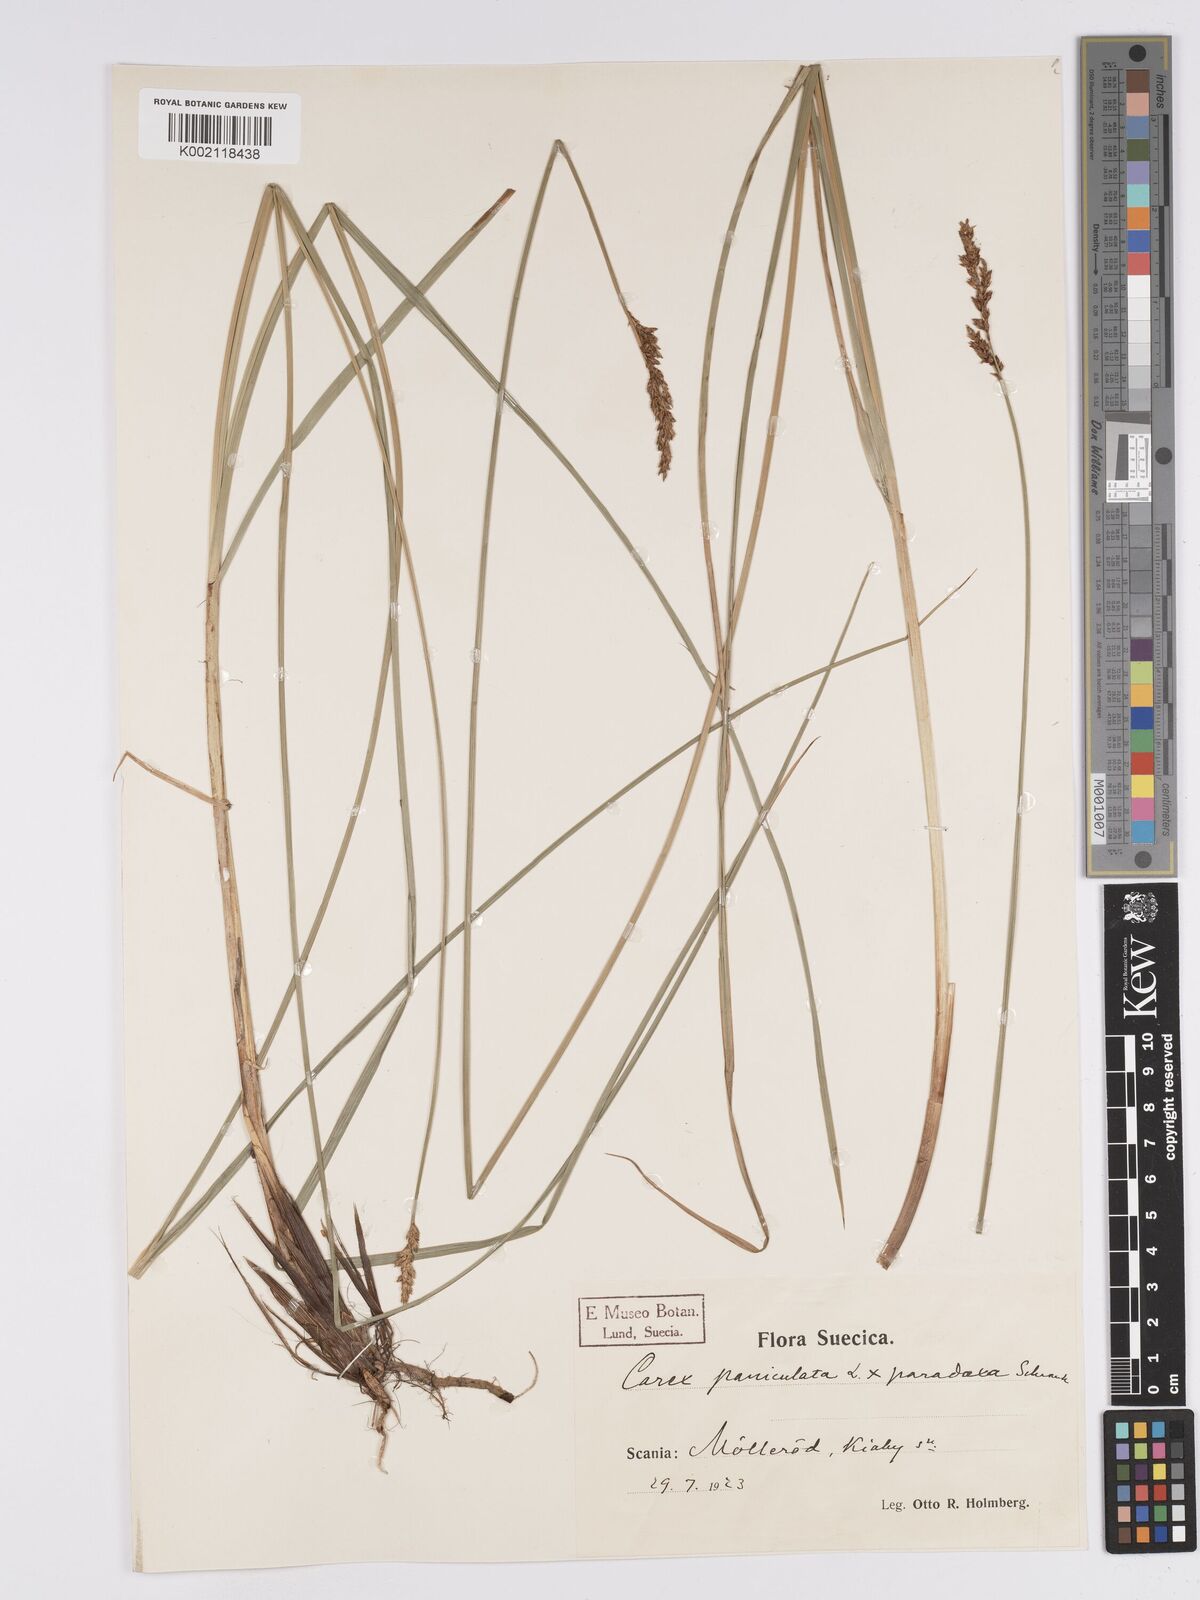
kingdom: Plantae
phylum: Tracheophyta
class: Liliopsida
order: Poales
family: Cyperaceae
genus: Carex
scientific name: Carex rotae
